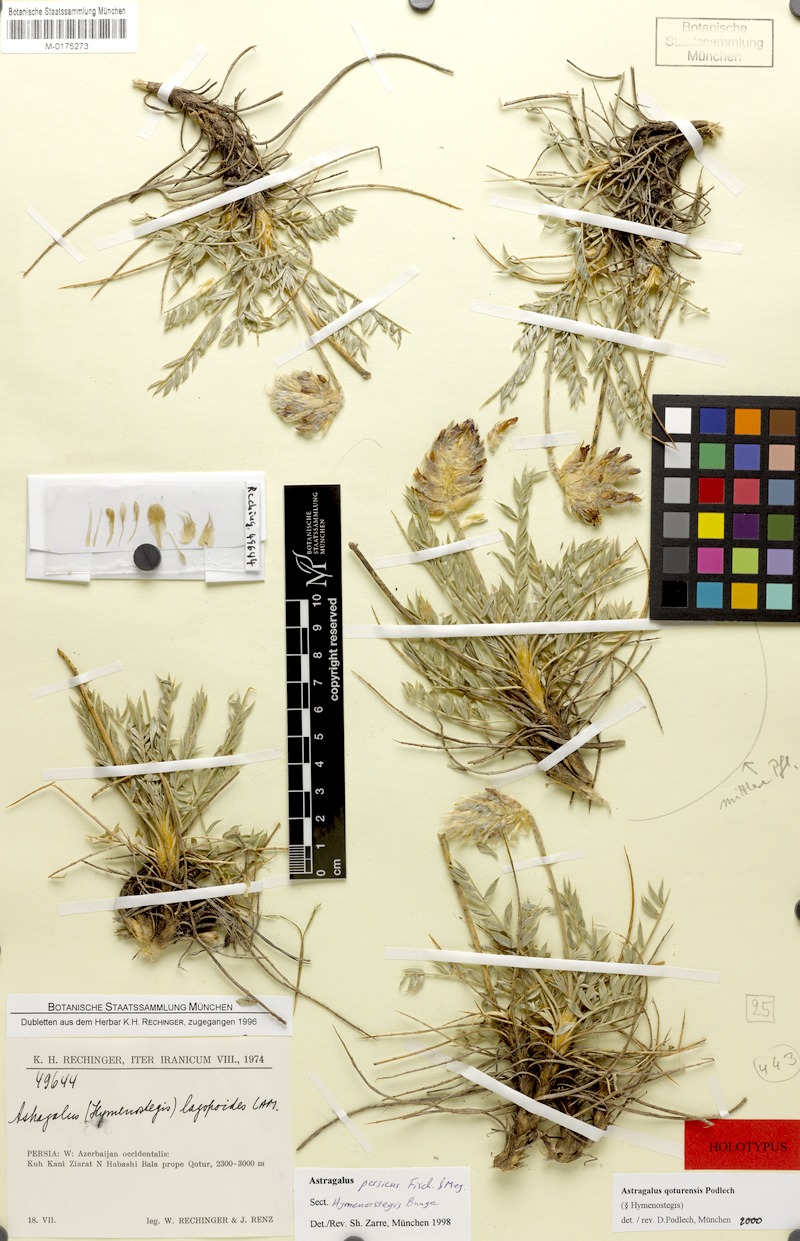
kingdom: Plantae
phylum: Tracheophyta
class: Magnoliopsida
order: Fabales
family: Fabaceae
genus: Astragalus
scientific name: Astragalus qoturensis
